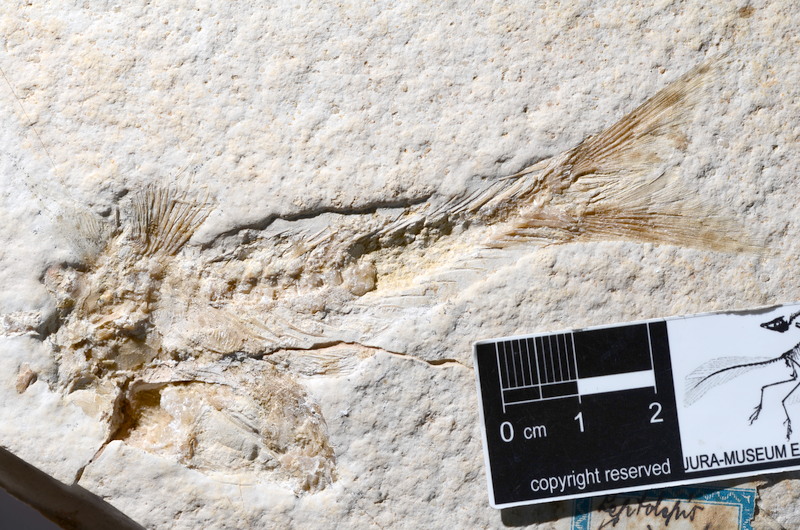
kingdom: Animalia
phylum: Chordata
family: Ascalaboidae
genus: Tharsis
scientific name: Tharsis dubius
